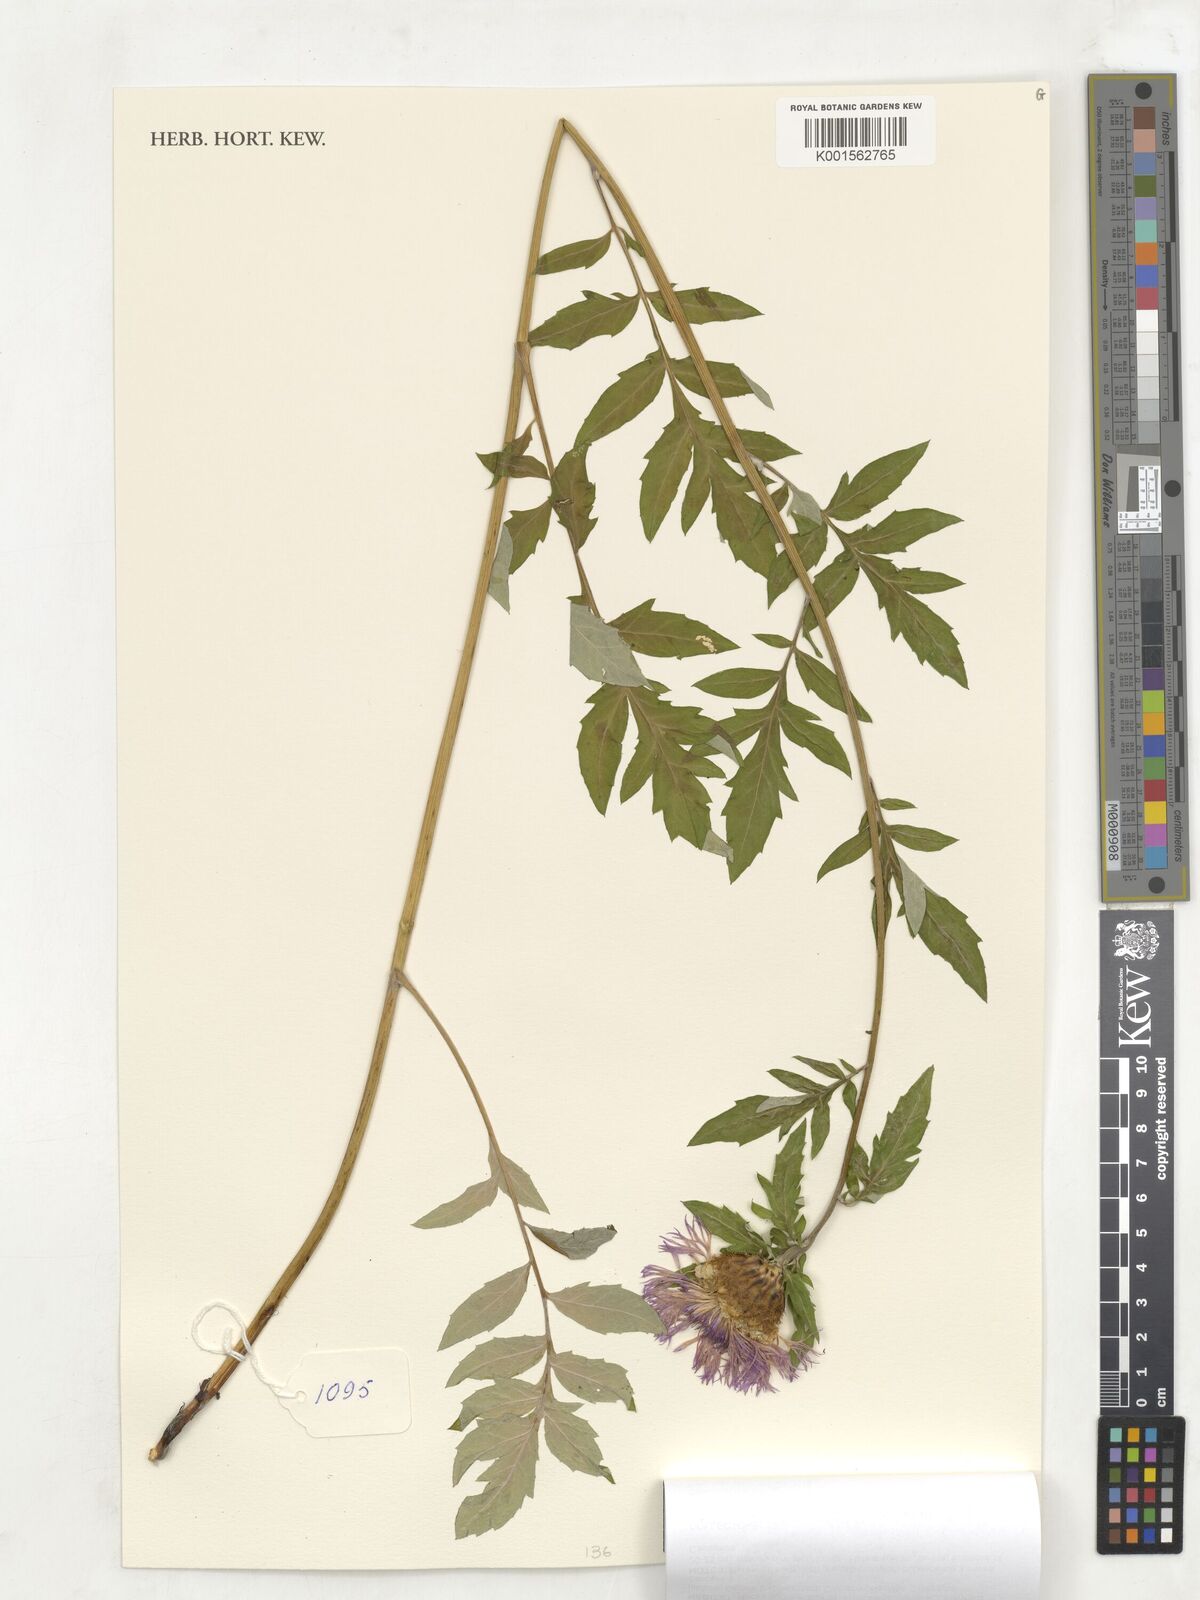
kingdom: Plantae
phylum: Tracheophyta
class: Magnoliopsida
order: Asterales
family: Asteraceae
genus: Psephellus
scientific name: Psephellus daghestanicus
